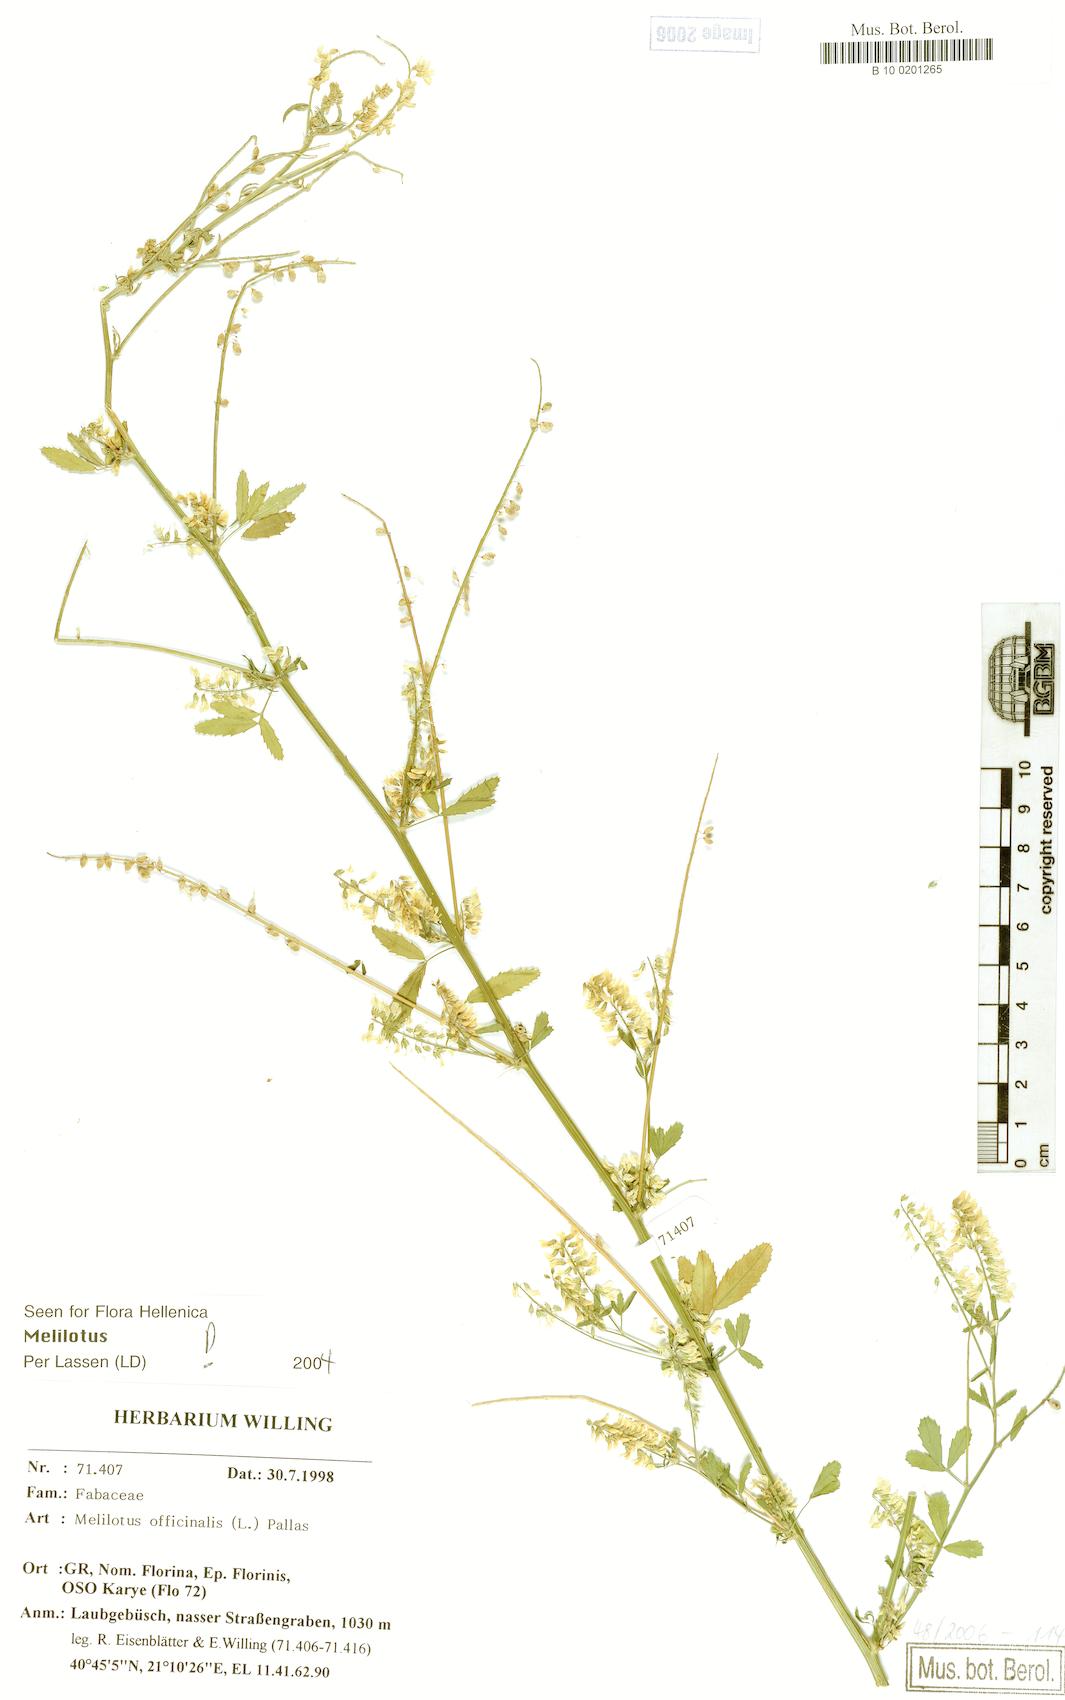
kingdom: Plantae
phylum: Tracheophyta
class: Magnoliopsida
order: Fabales
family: Fabaceae
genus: Melilotus
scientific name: Melilotus officinalis
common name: Sweetclover
